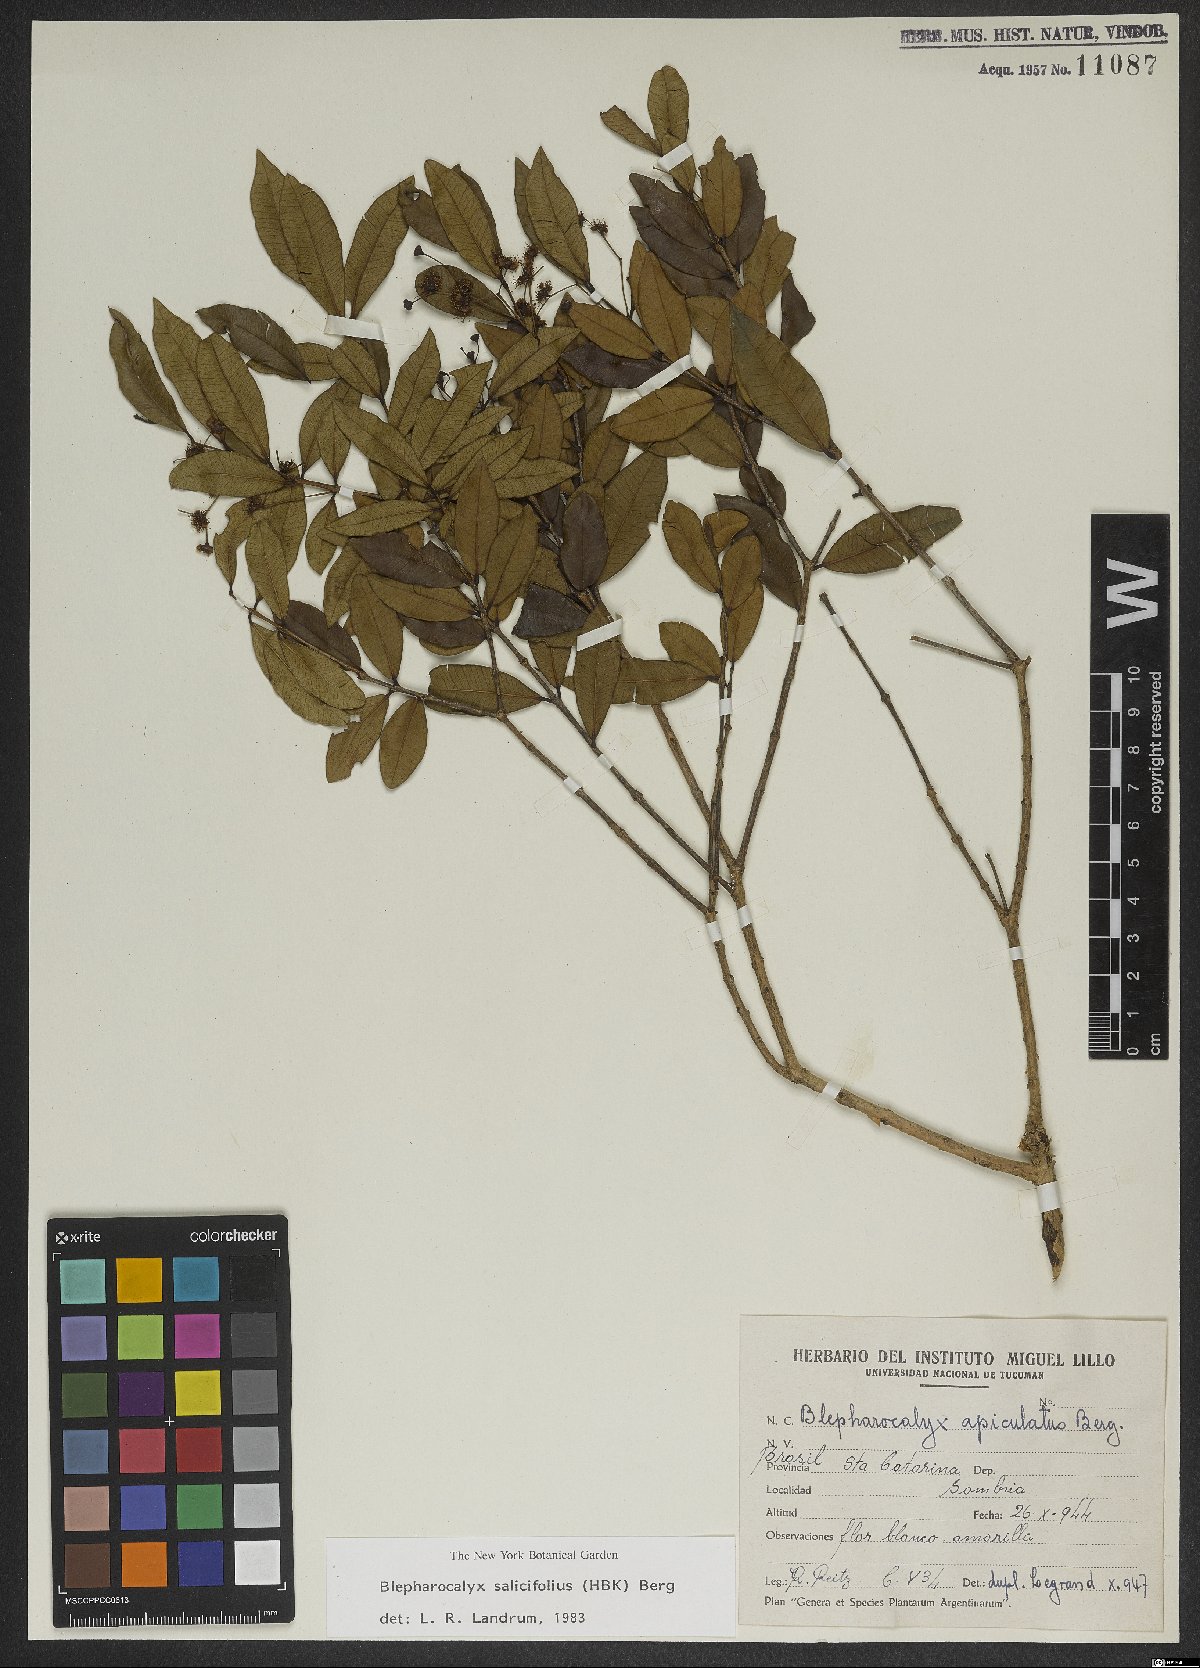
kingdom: Plantae
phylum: Tracheophyta
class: Magnoliopsida
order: Myrtales
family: Myrtaceae
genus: Blepharocalyx
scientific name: Blepharocalyx salicifolius
